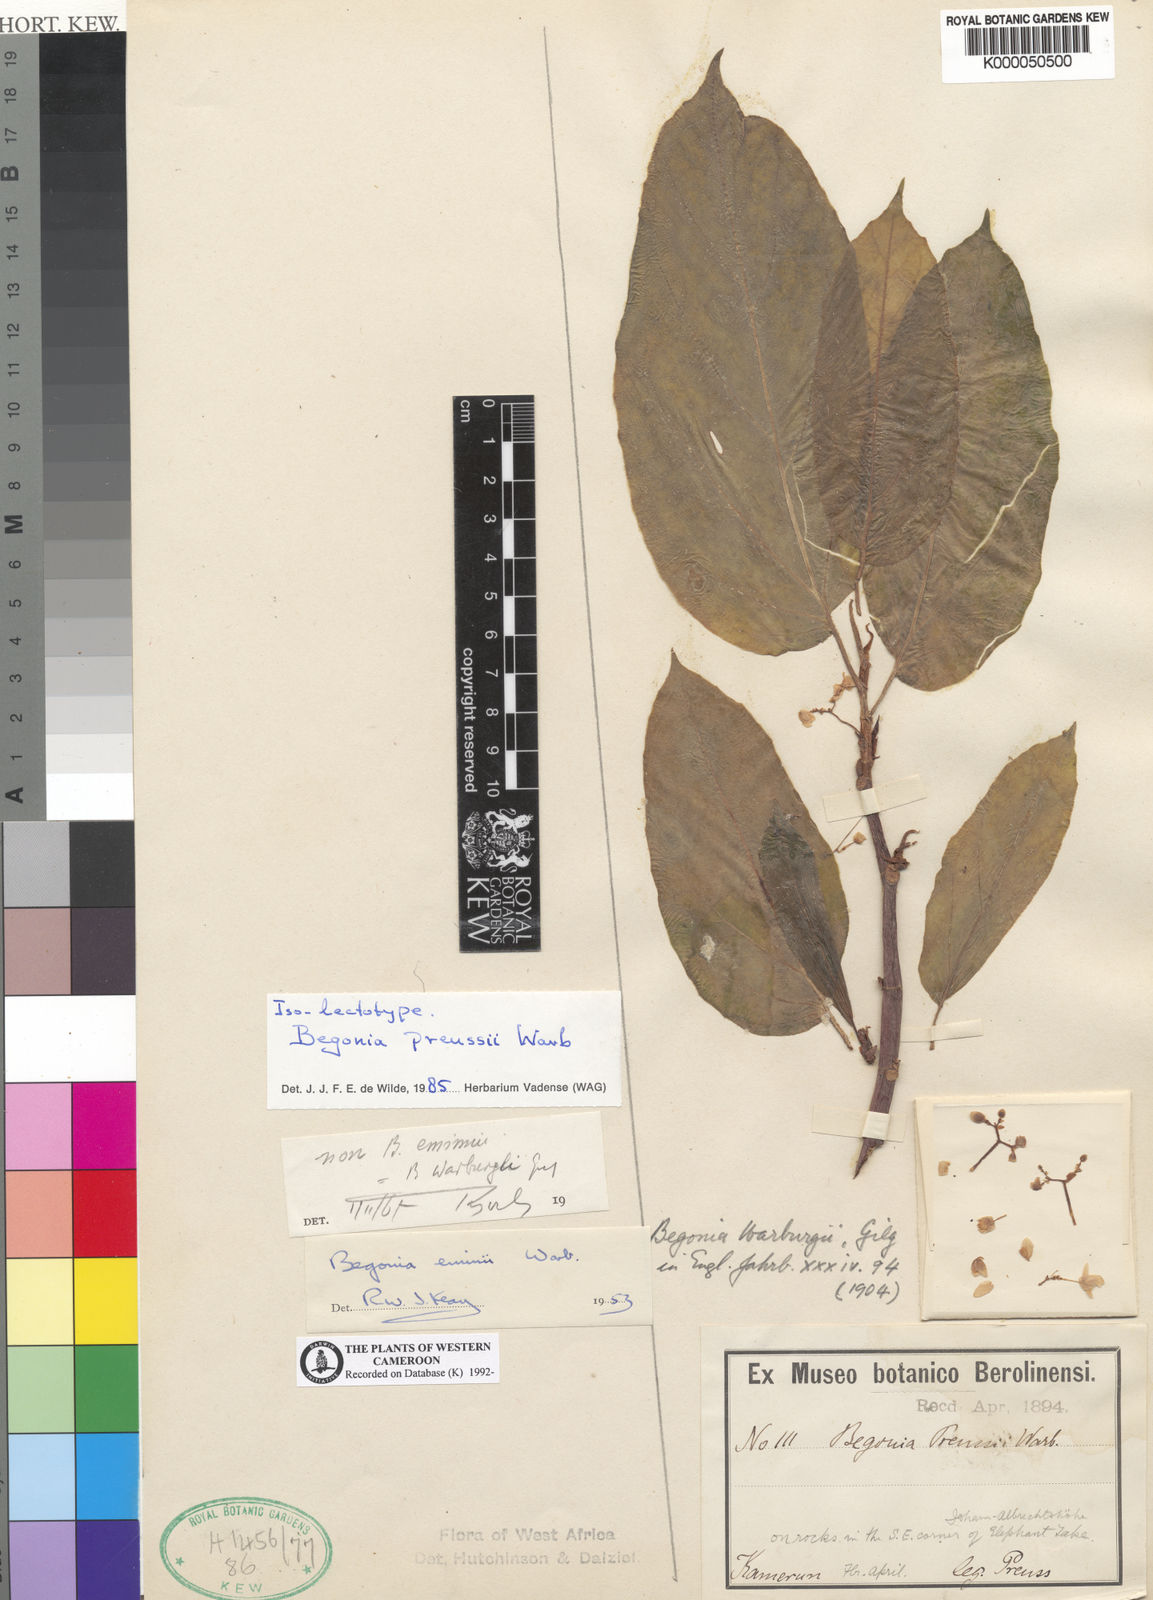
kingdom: Plantae
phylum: Tracheophyta
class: Magnoliopsida
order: Cucurbitales
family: Begoniaceae
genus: Begonia
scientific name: Begonia preussii
